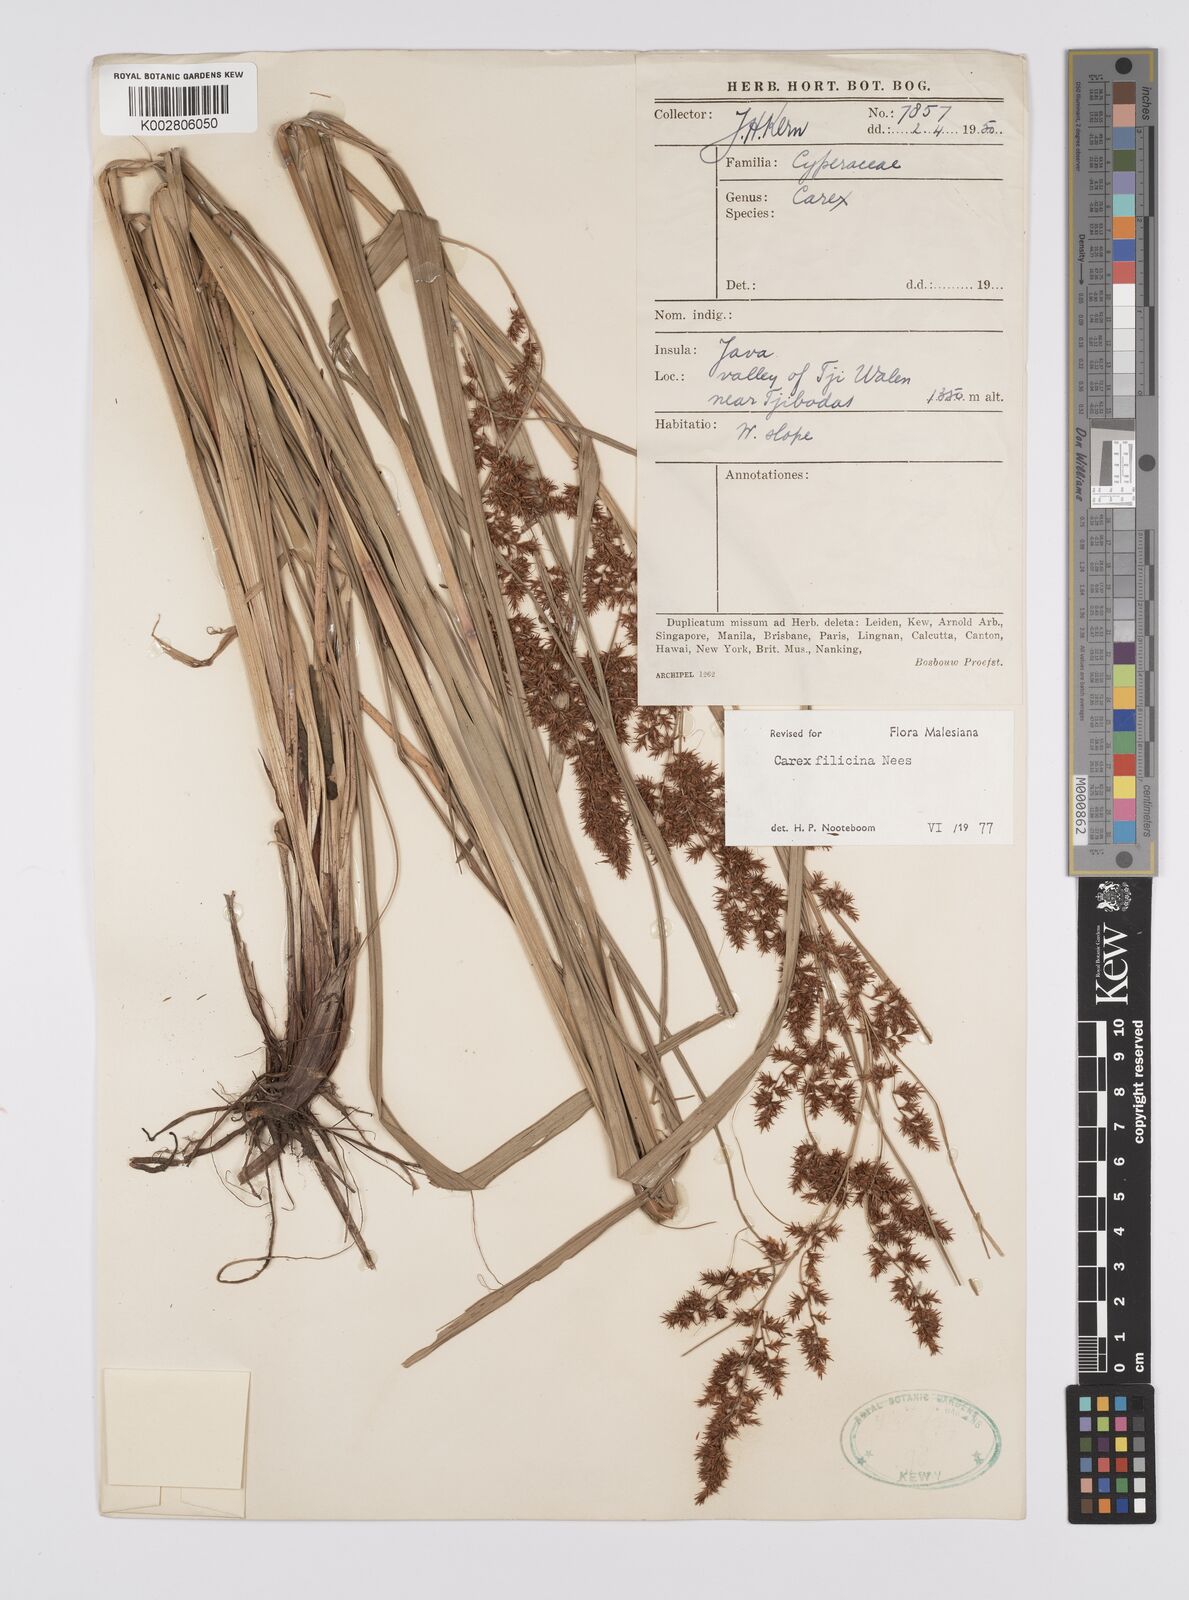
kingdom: Plantae
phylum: Tracheophyta
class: Liliopsida
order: Poales
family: Cyperaceae
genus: Carex
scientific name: Carex filicina
